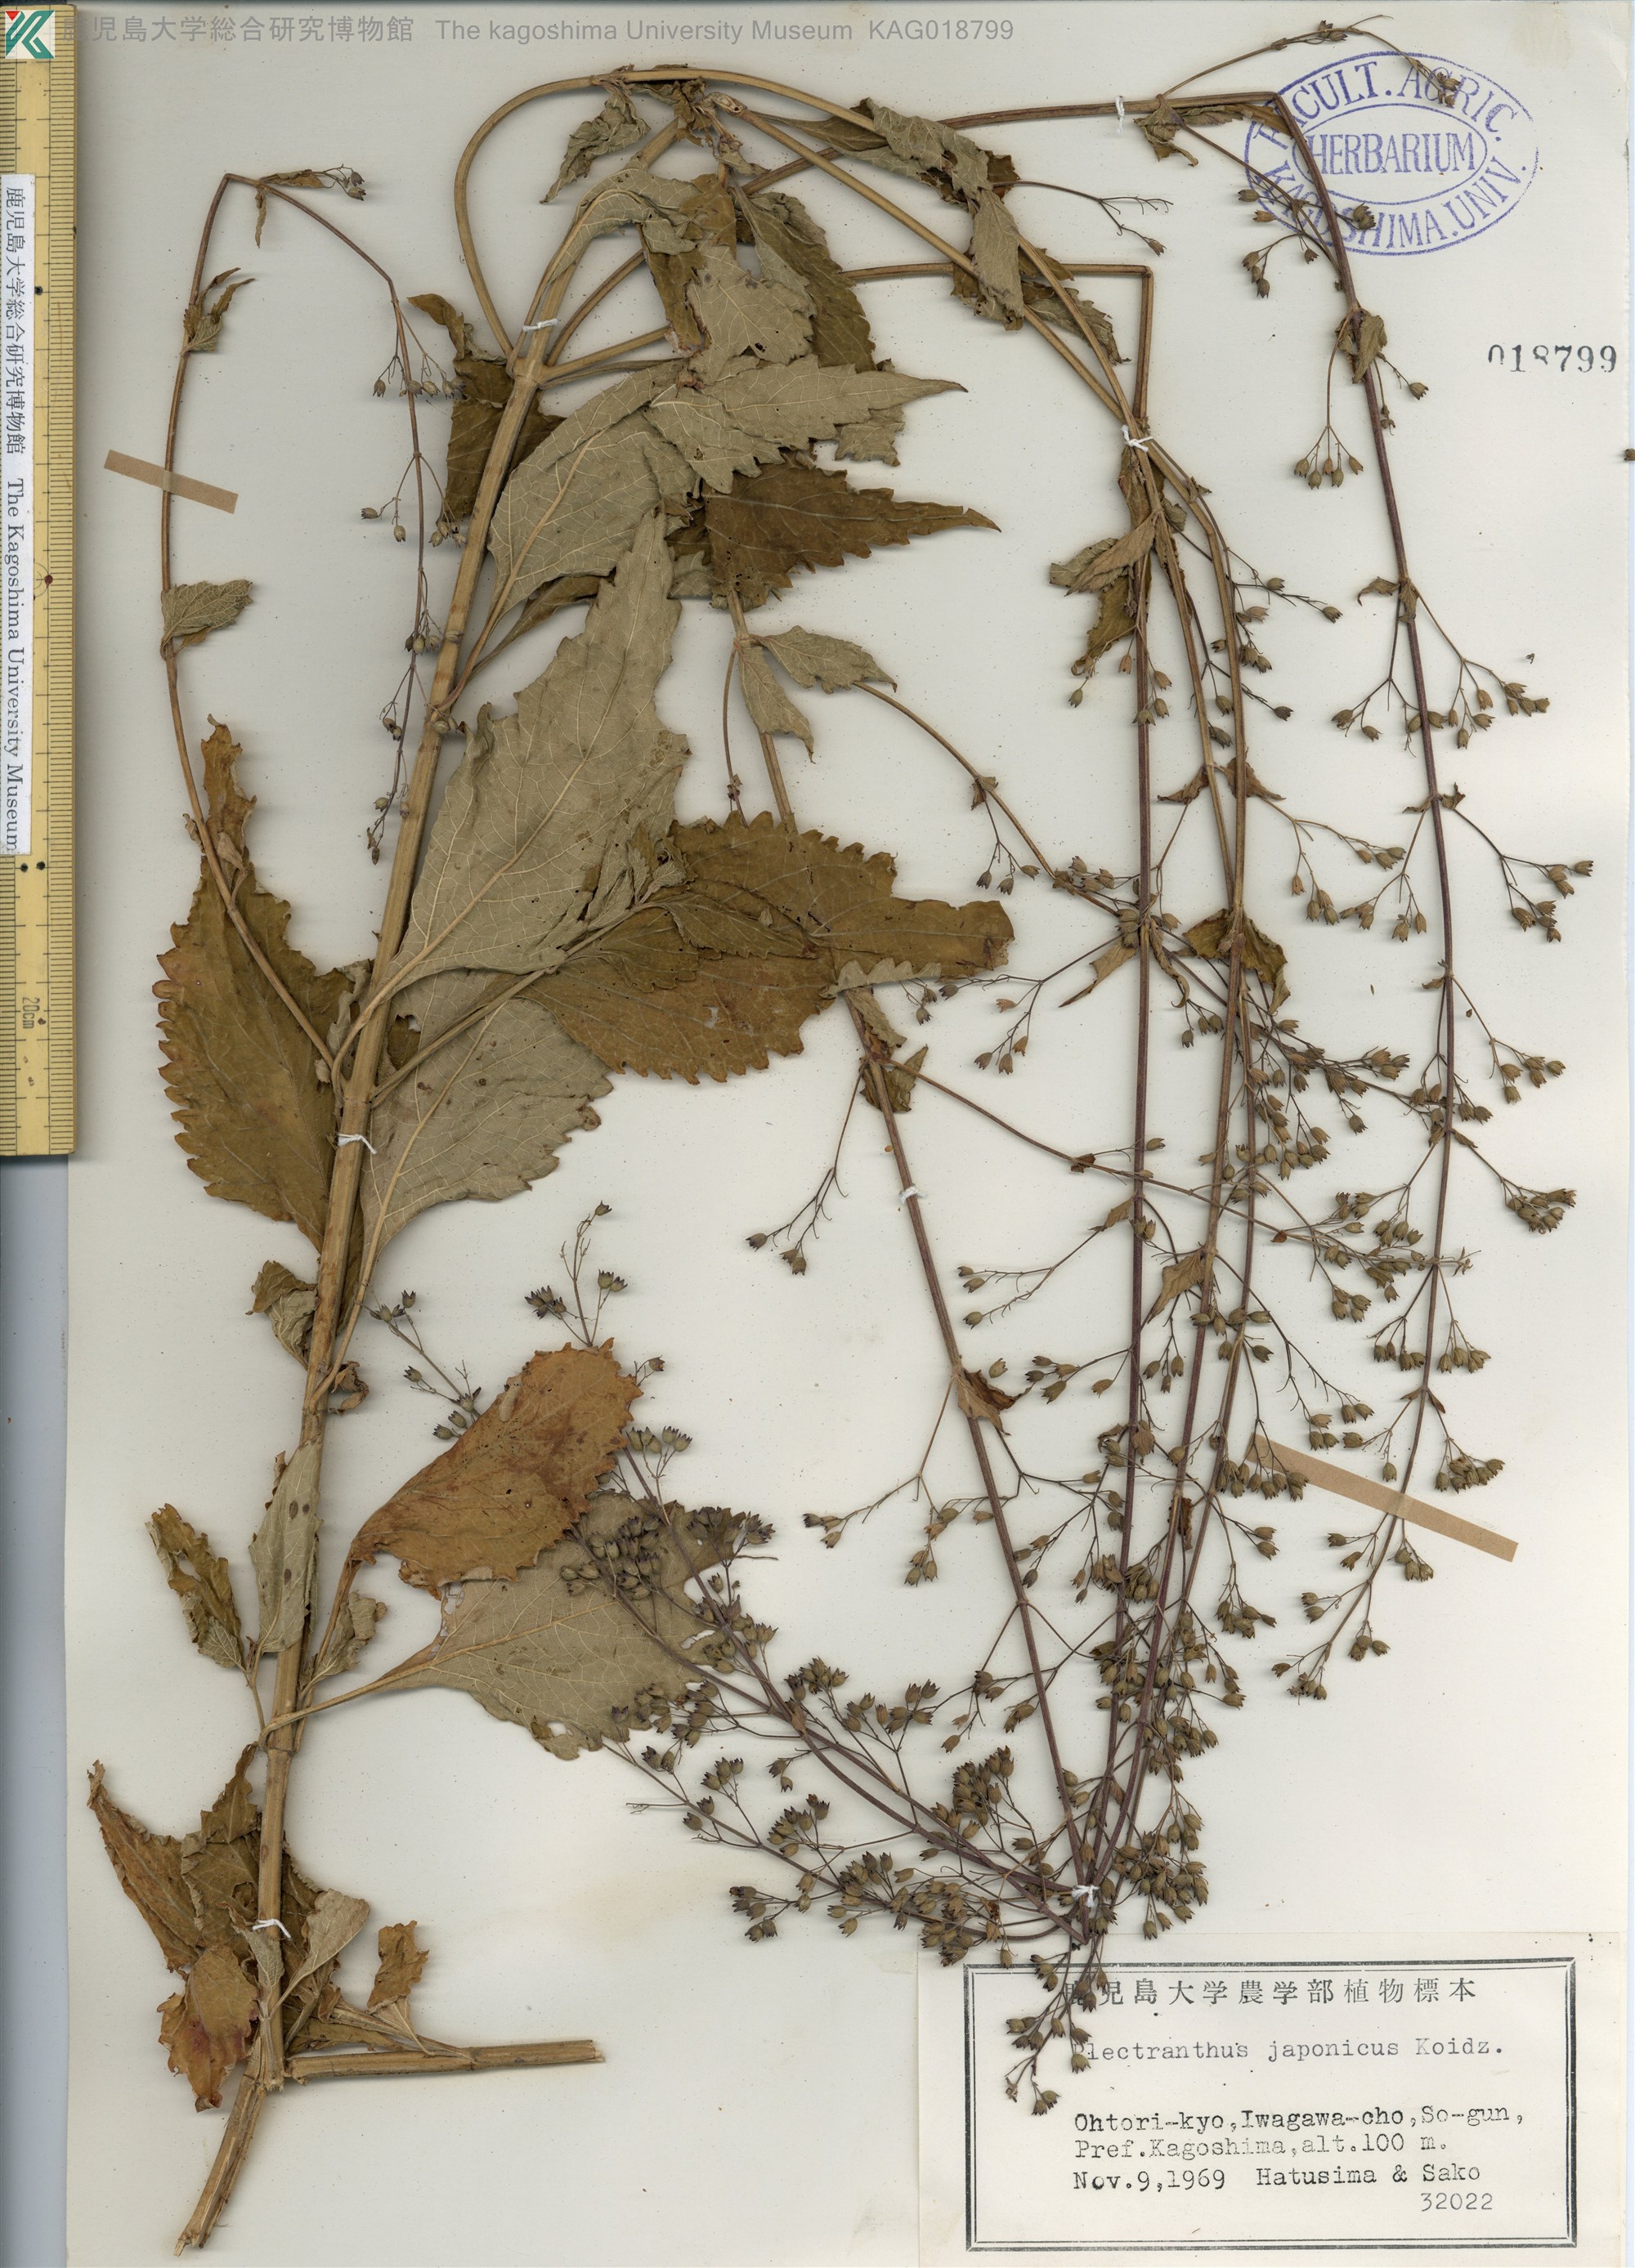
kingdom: Plantae
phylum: Tracheophyta
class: Magnoliopsida
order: Lamiales
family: Lamiaceae
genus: Isodon
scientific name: Isodon japonicus
